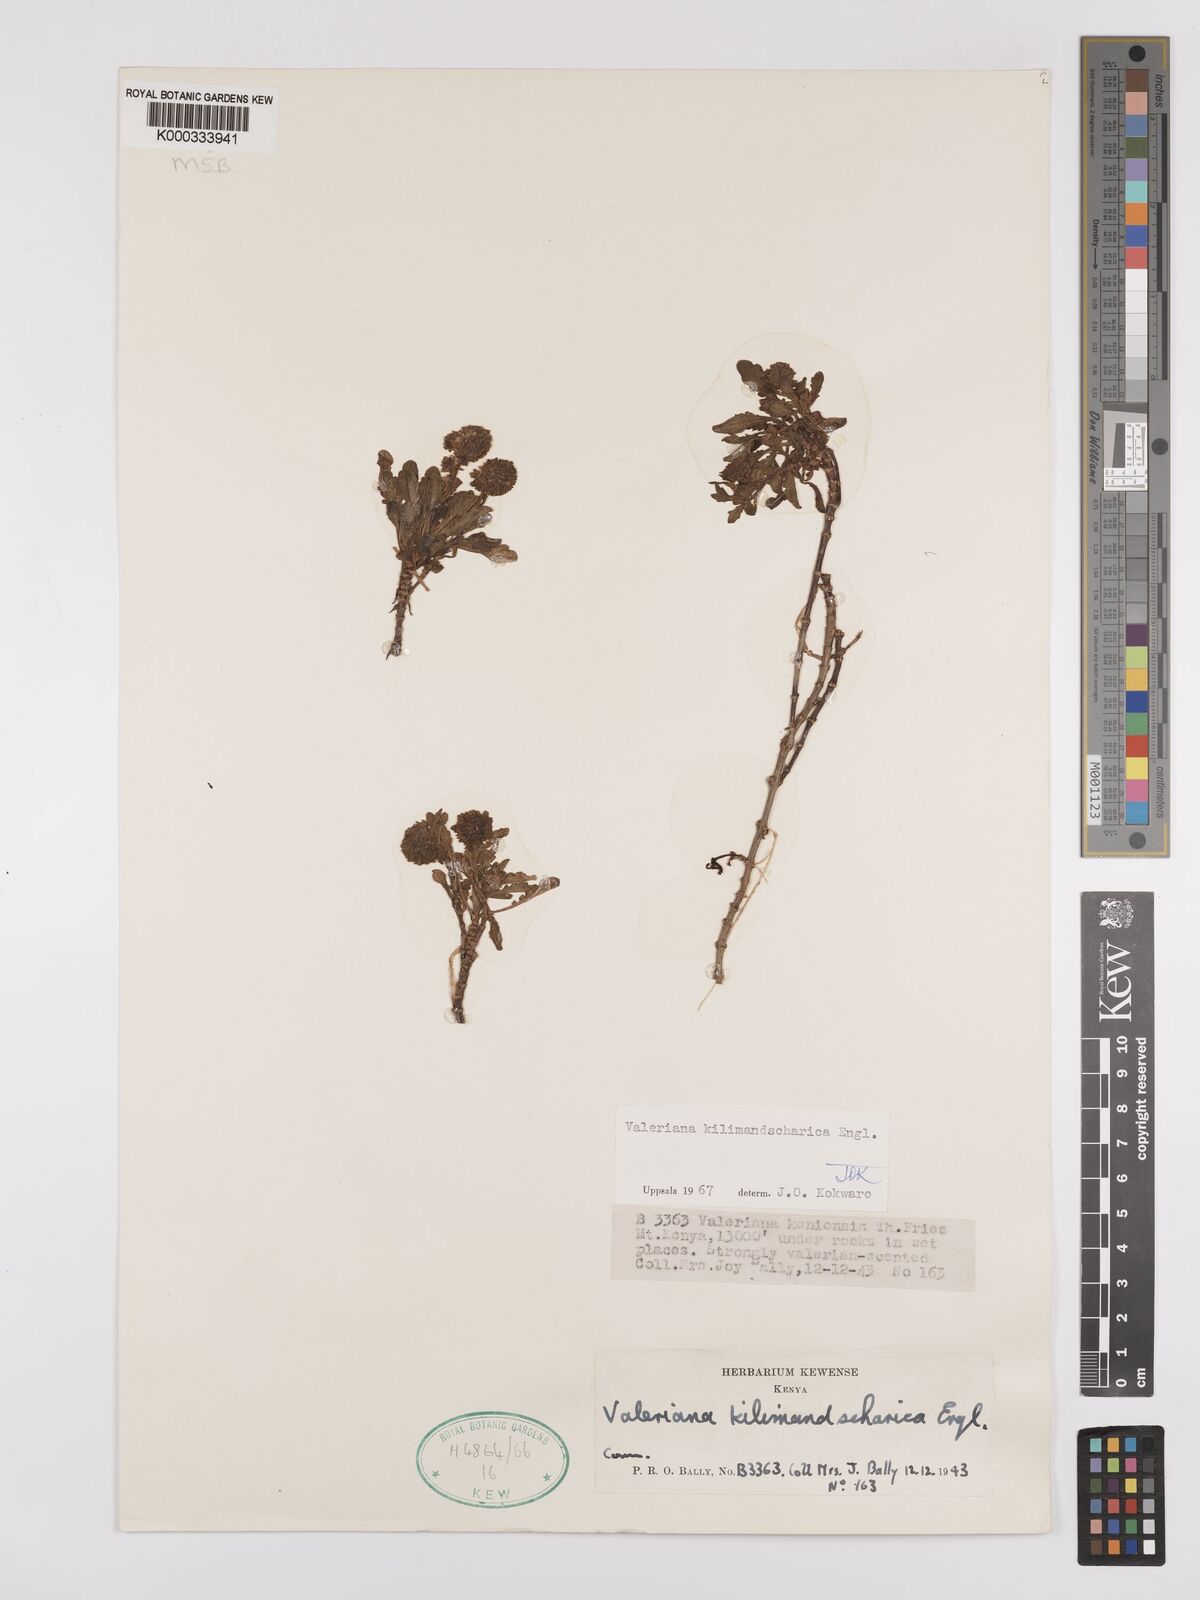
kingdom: Plantae
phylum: Tracheophyta
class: Magnoliopsida
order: Dipsacales
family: Caprifoliaceae
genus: Valeriana
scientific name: Valeriana kilimandscharica
